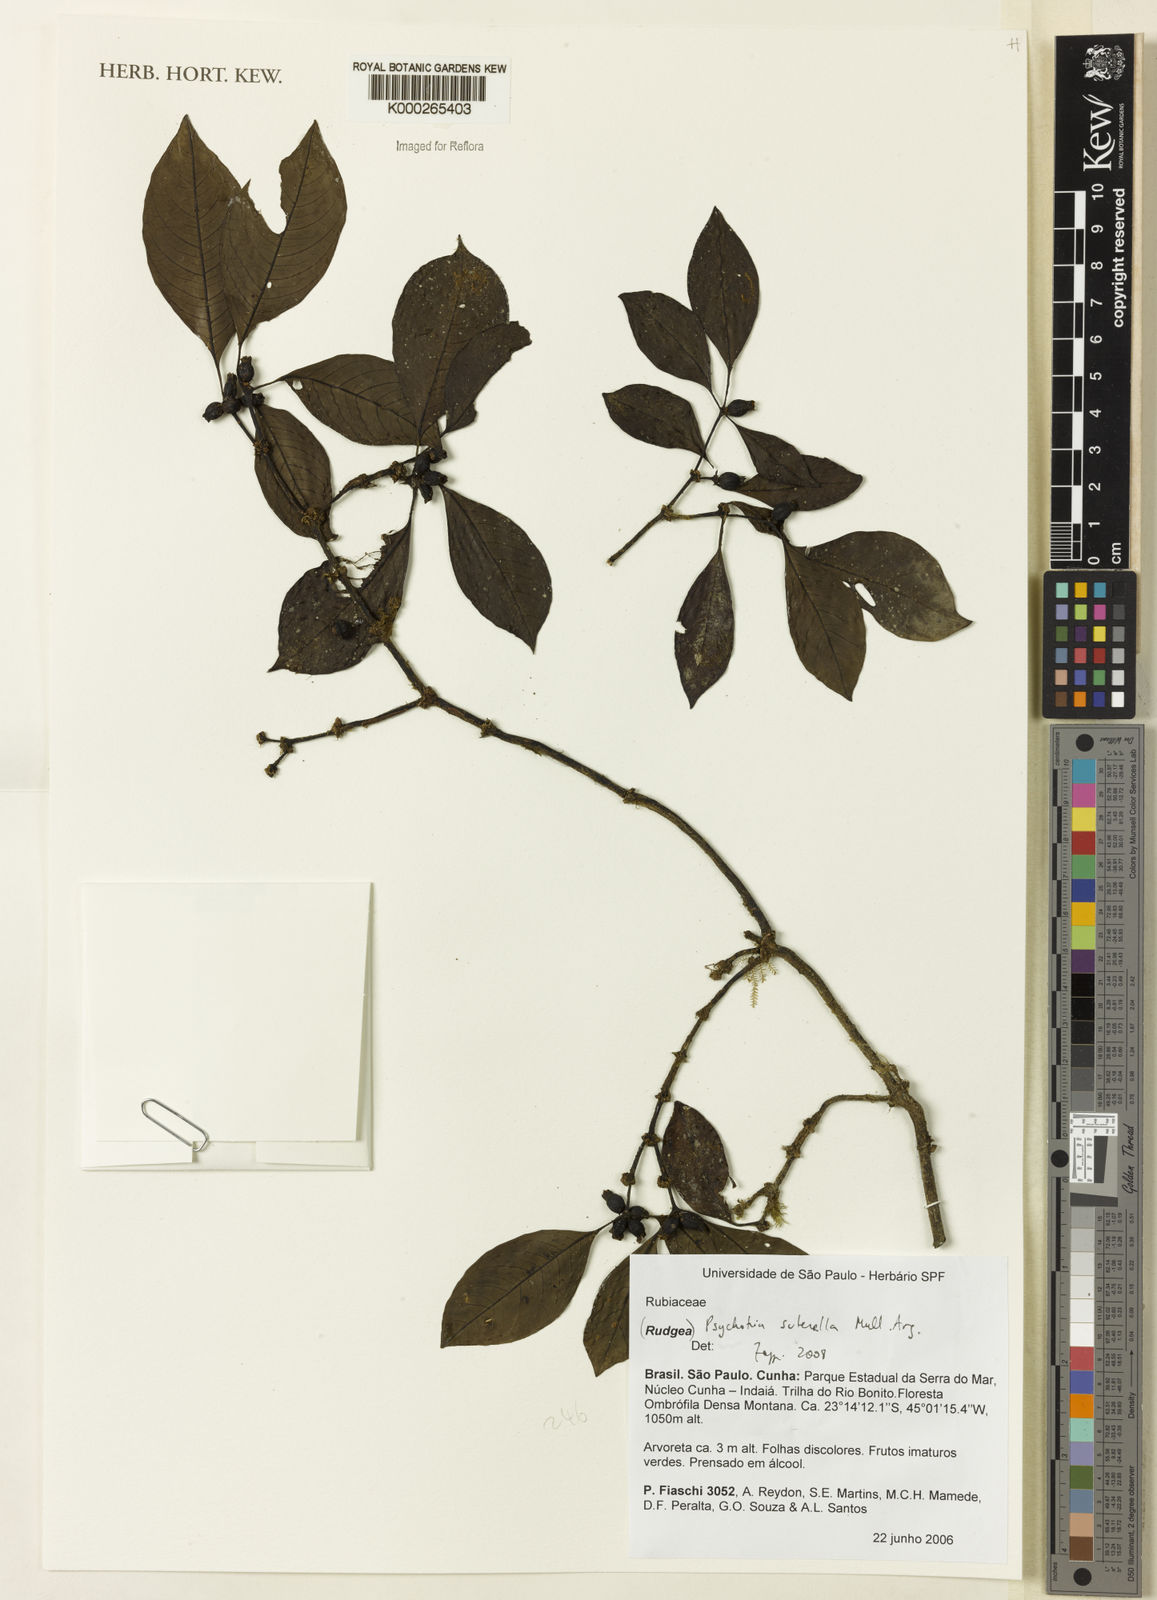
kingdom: Plantae
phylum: Tracheophyta
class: Magnoliopsida
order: Gentianales
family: Rubiaceae
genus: Psychotria
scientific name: Psychotria
